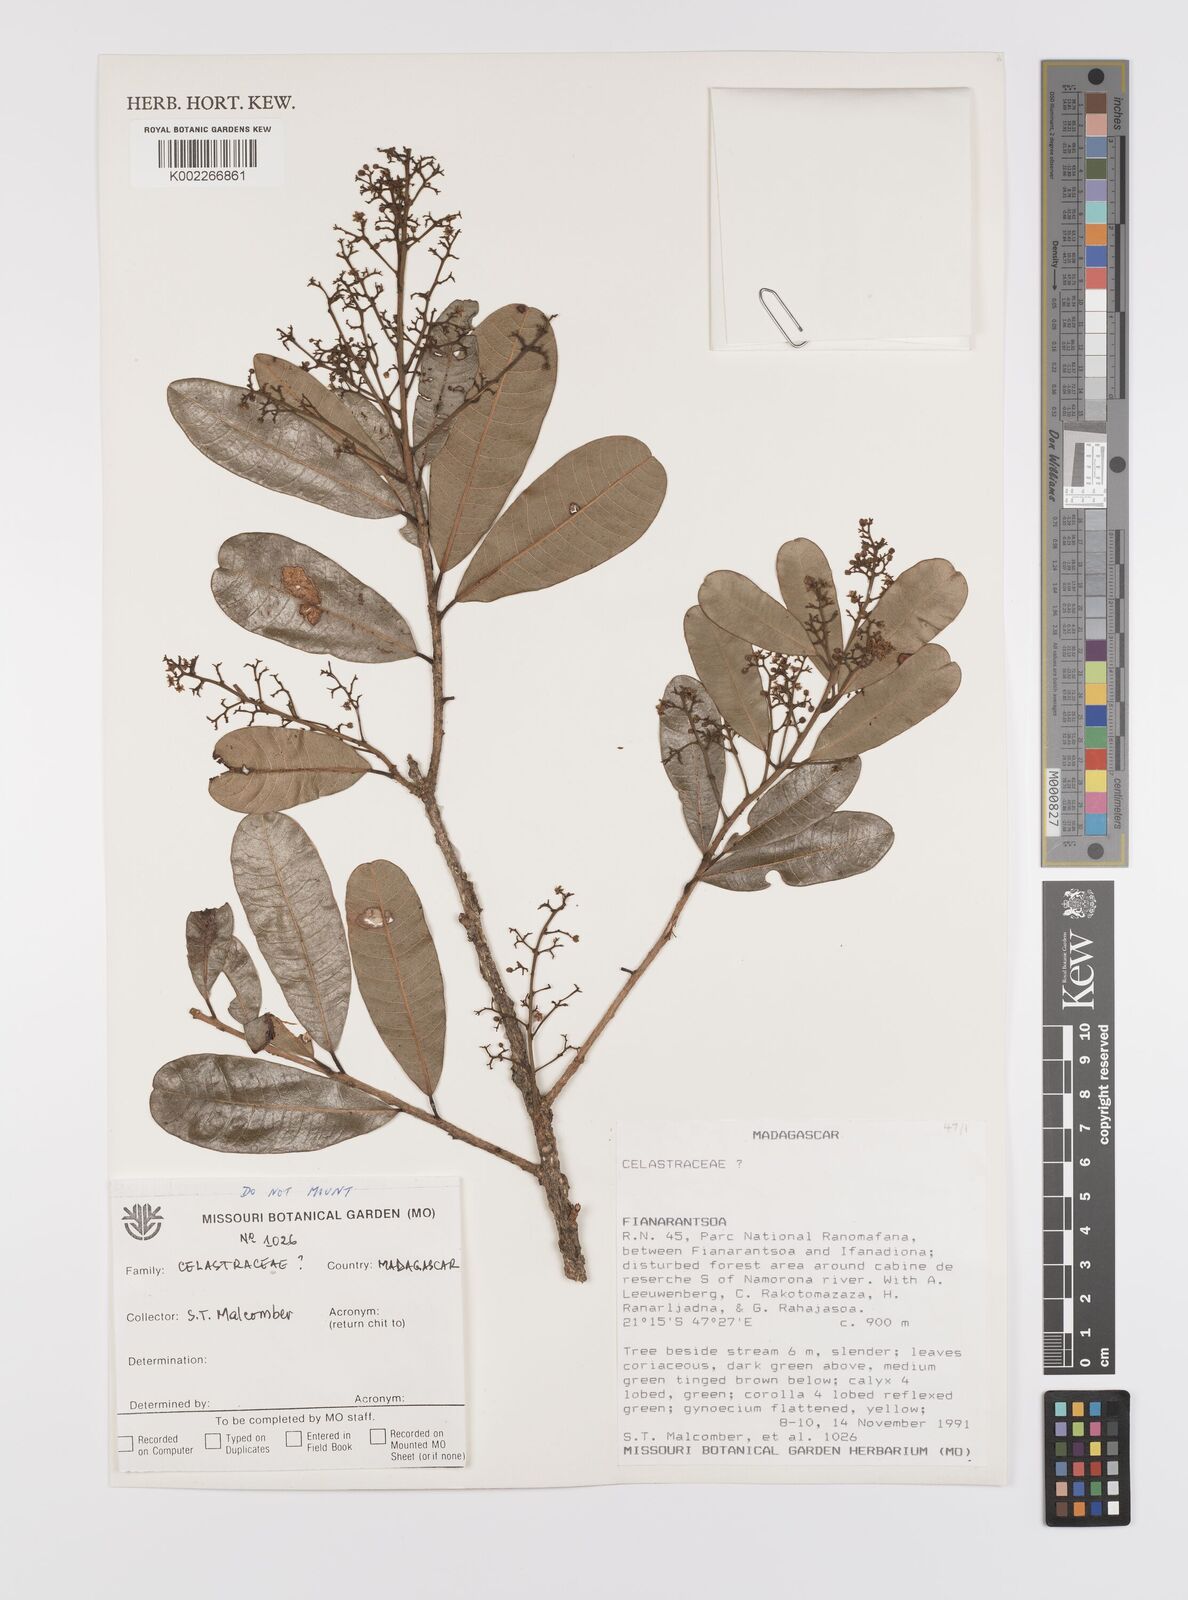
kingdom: Plantae
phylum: Tracheophyta
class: Magnoliopsida
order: Celastrales
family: Celastraceae
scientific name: Celastraceae
